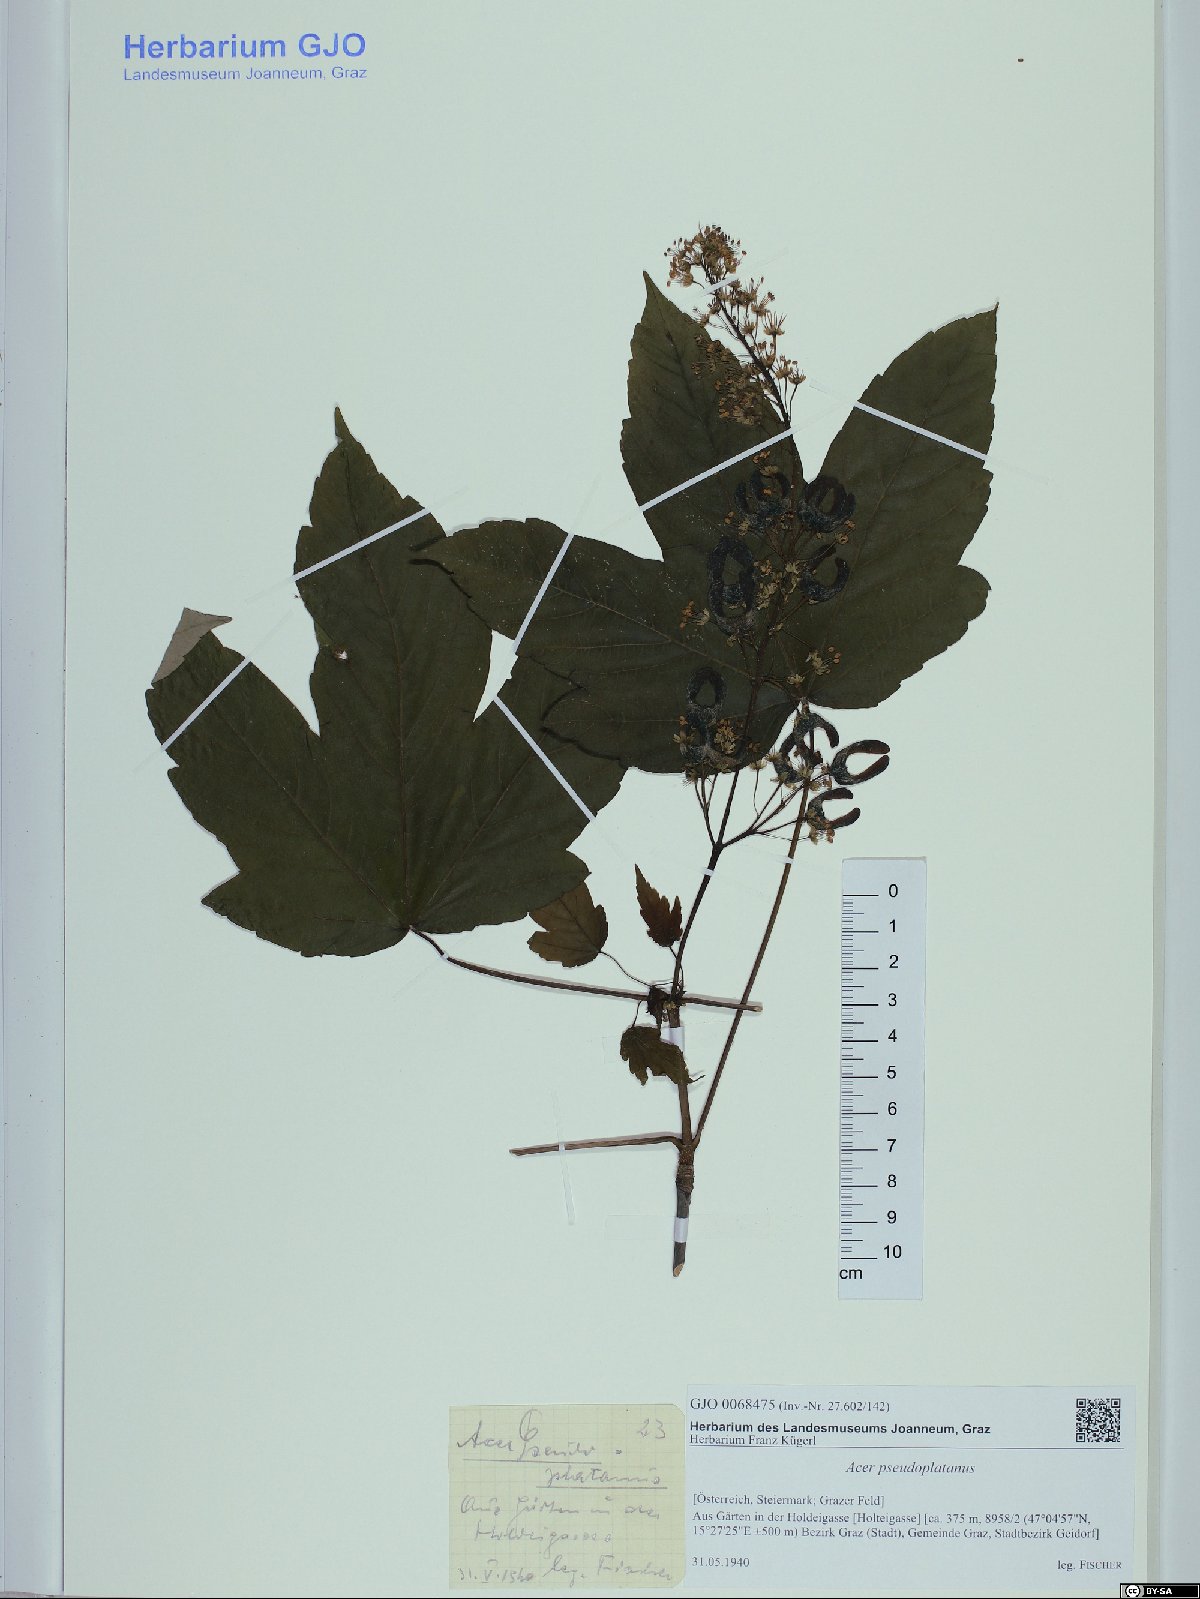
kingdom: Plantae
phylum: Tracheophyta
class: Magnoliopsida
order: Sapindales
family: Sapindaceae
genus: Acer
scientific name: Acer pseudoplatanus
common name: Sycamore
